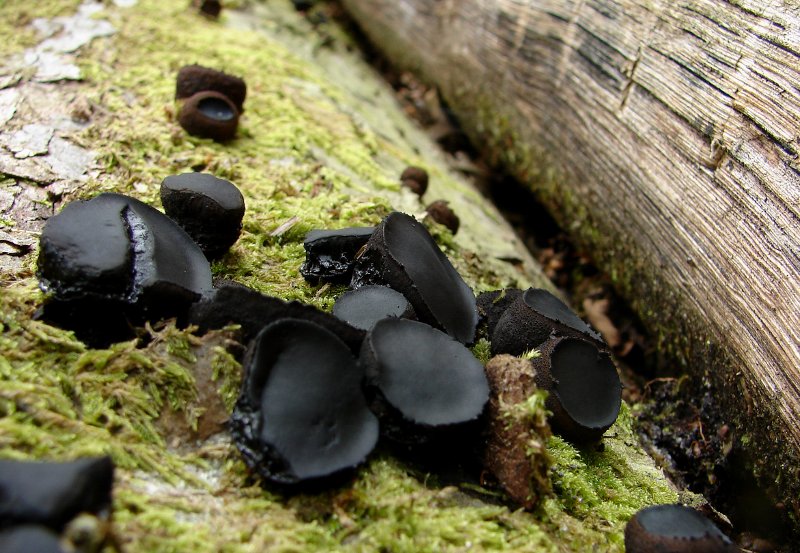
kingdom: Fungi
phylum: Ascomycota
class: Leotiomycetes
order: Phacidiales
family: Phacidiaceae
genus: Bulgaria
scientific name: Bulgaria inquinans
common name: afsmittende topsvamp
